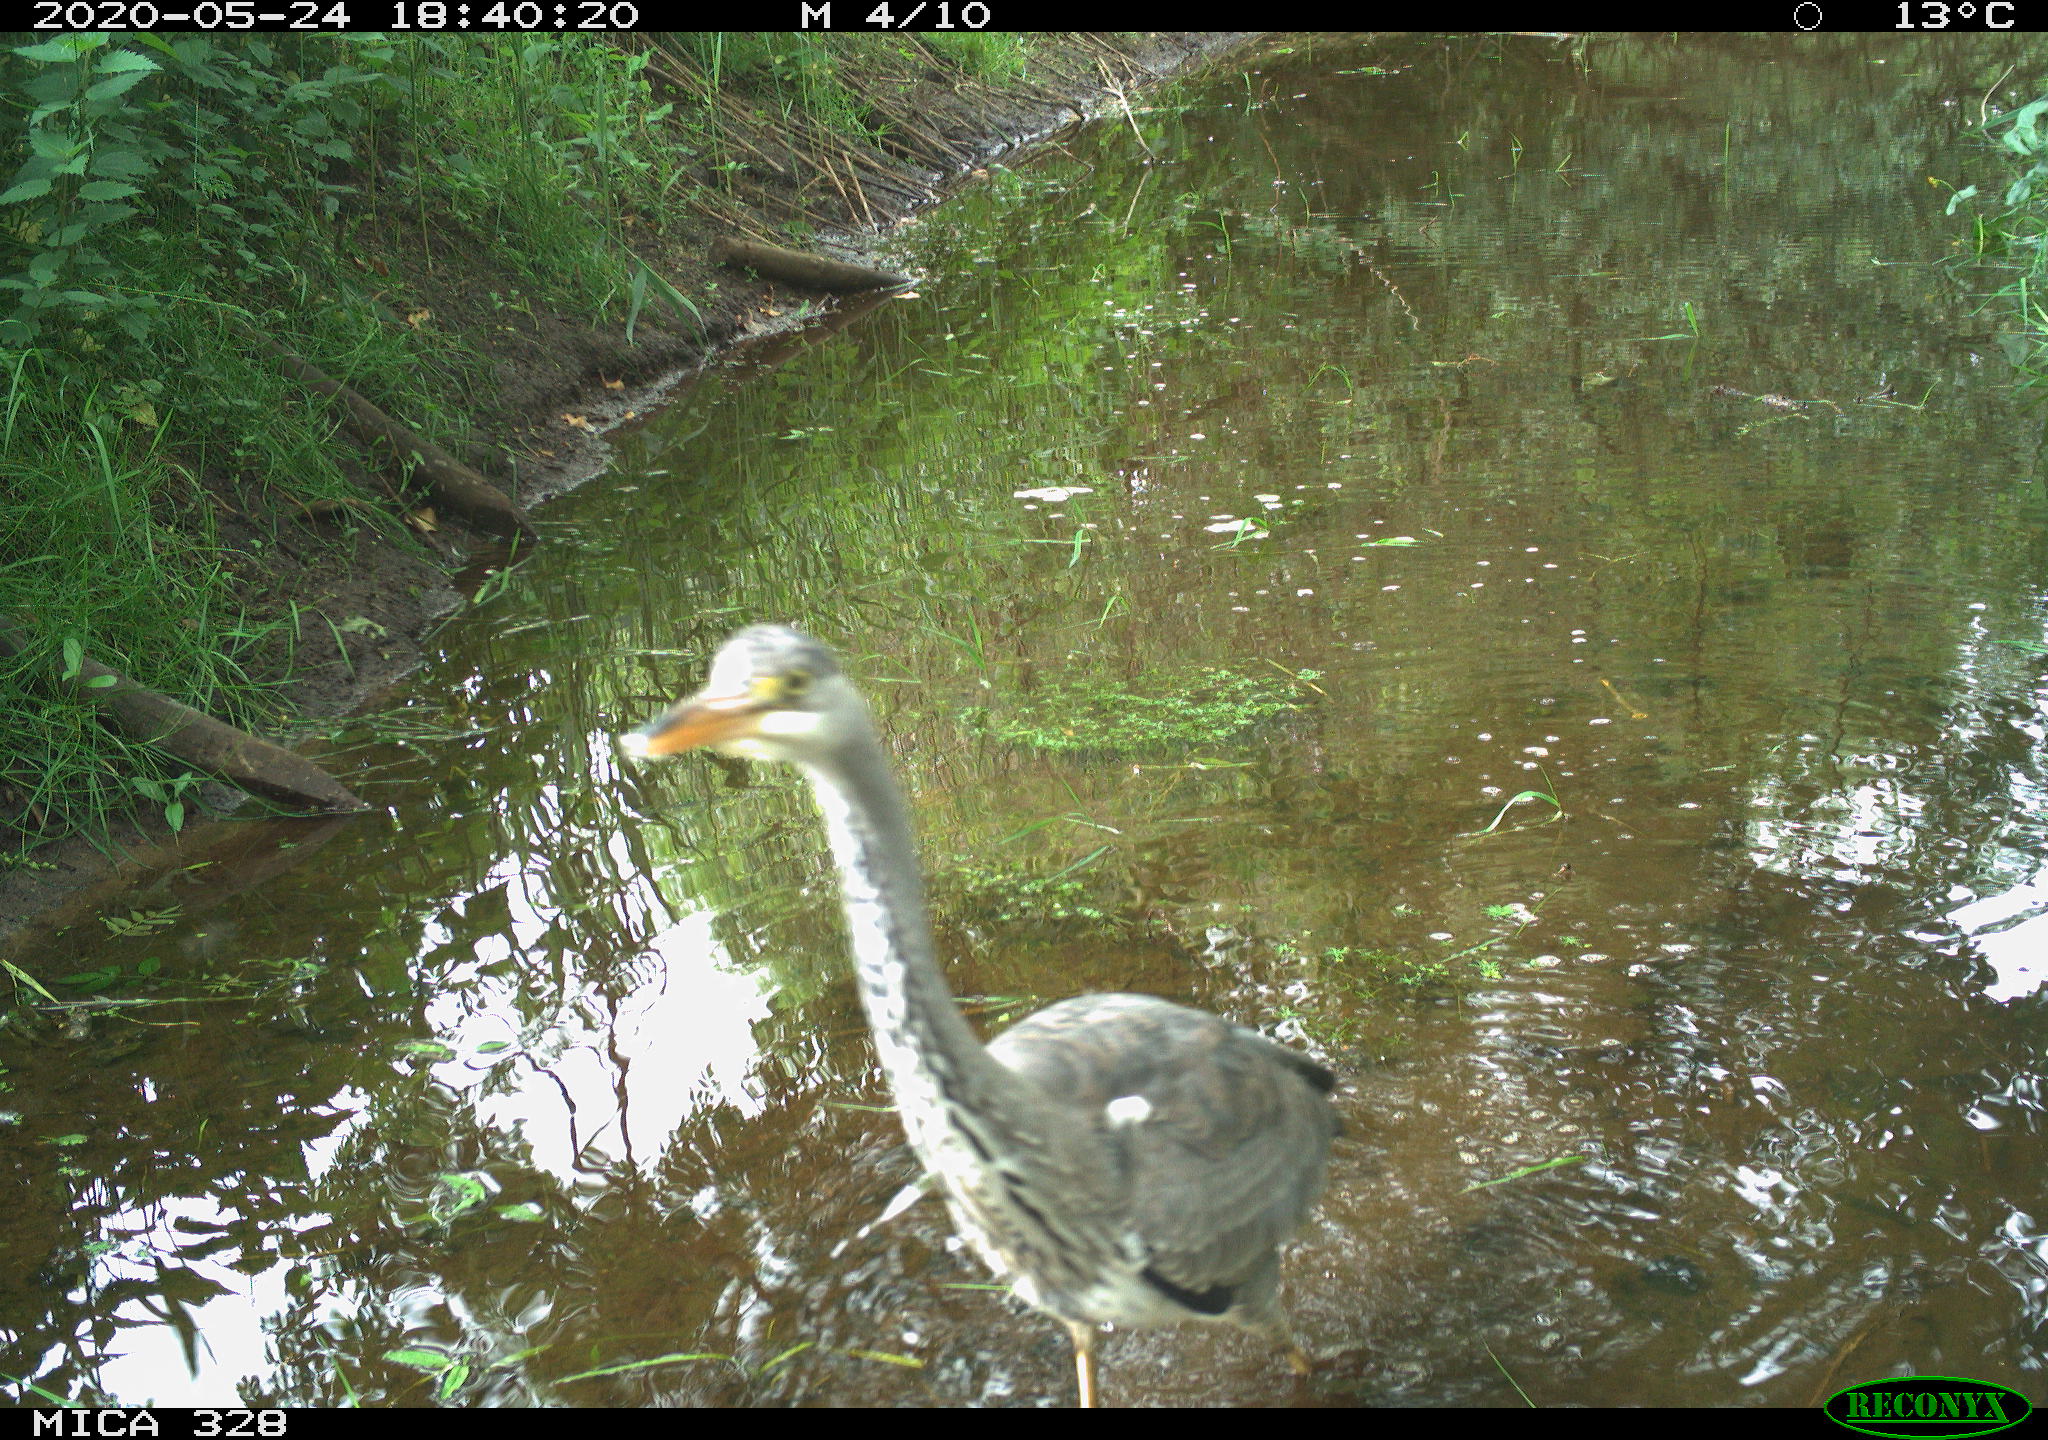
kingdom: Animalia
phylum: Chordata
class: Aves
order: Pelecaniformes
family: Ardeidae
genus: Ardea
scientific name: Ardea cinerea
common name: Grey heron
